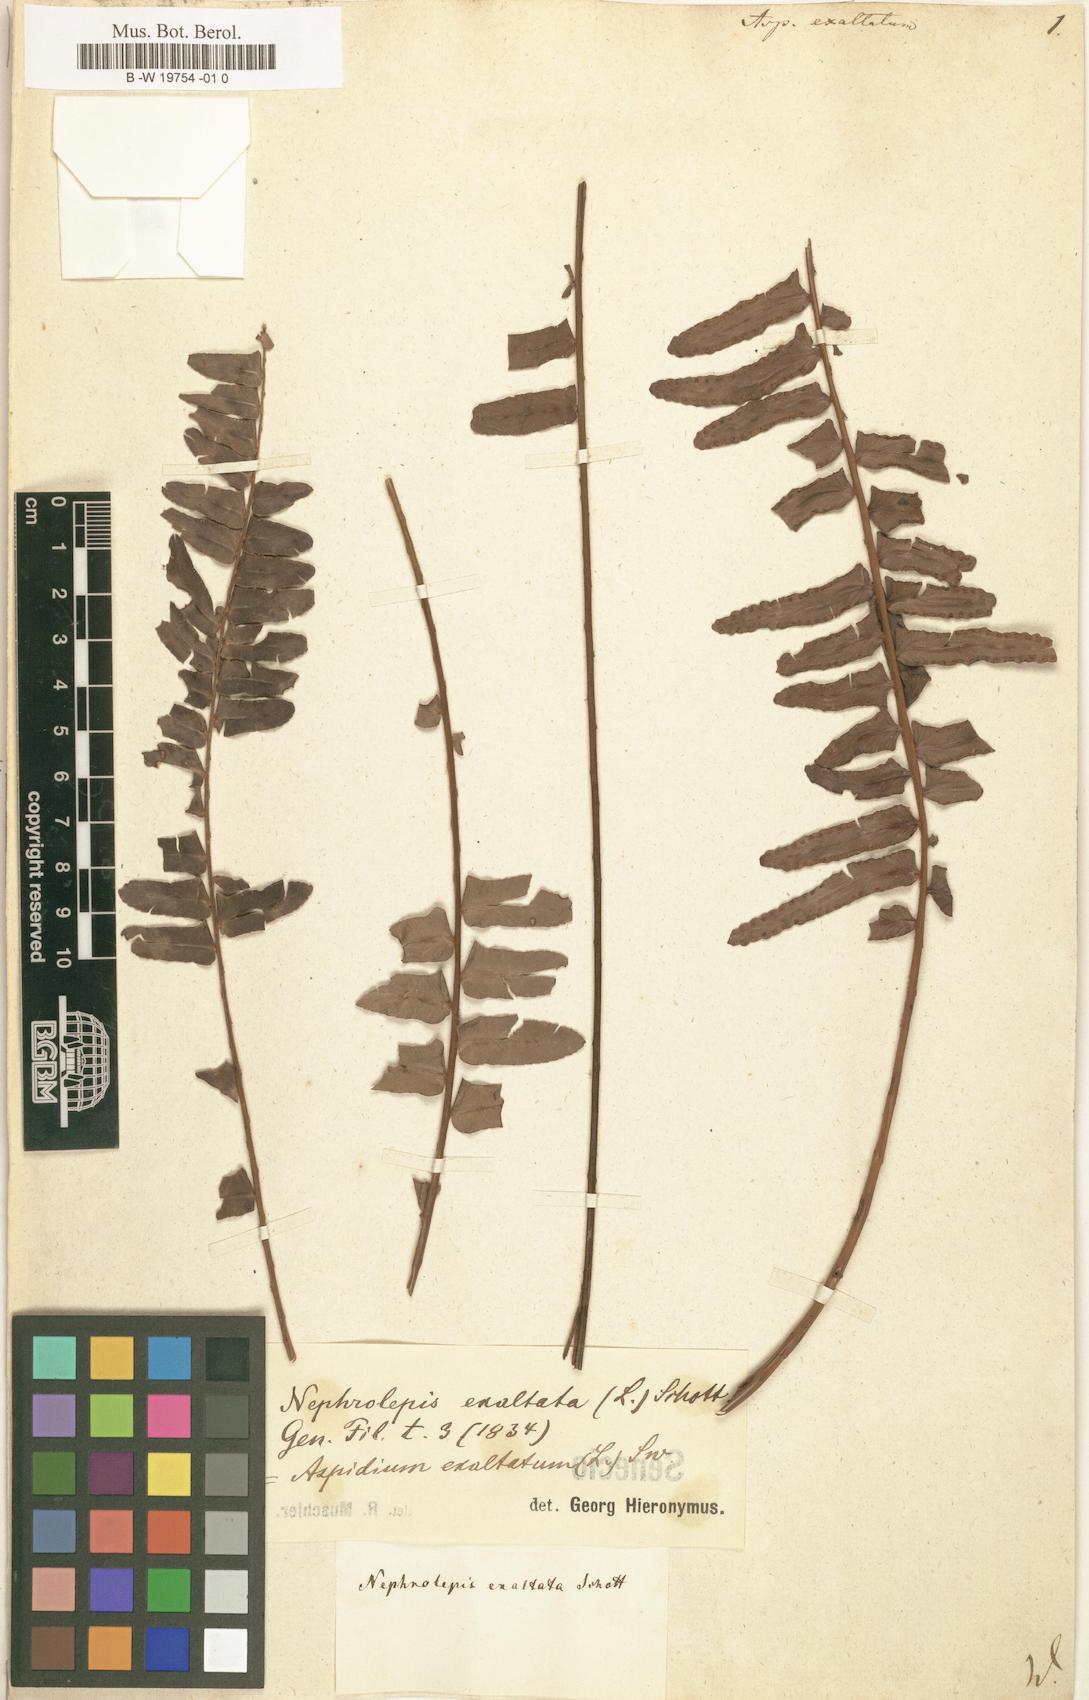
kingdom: Plantae
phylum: Tracheophyta
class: Polypodiopsida
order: Polypodiales
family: Nephrolepidaceae
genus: Nephrolepis
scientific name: Nephrolepis exaltata
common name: Sword fern
